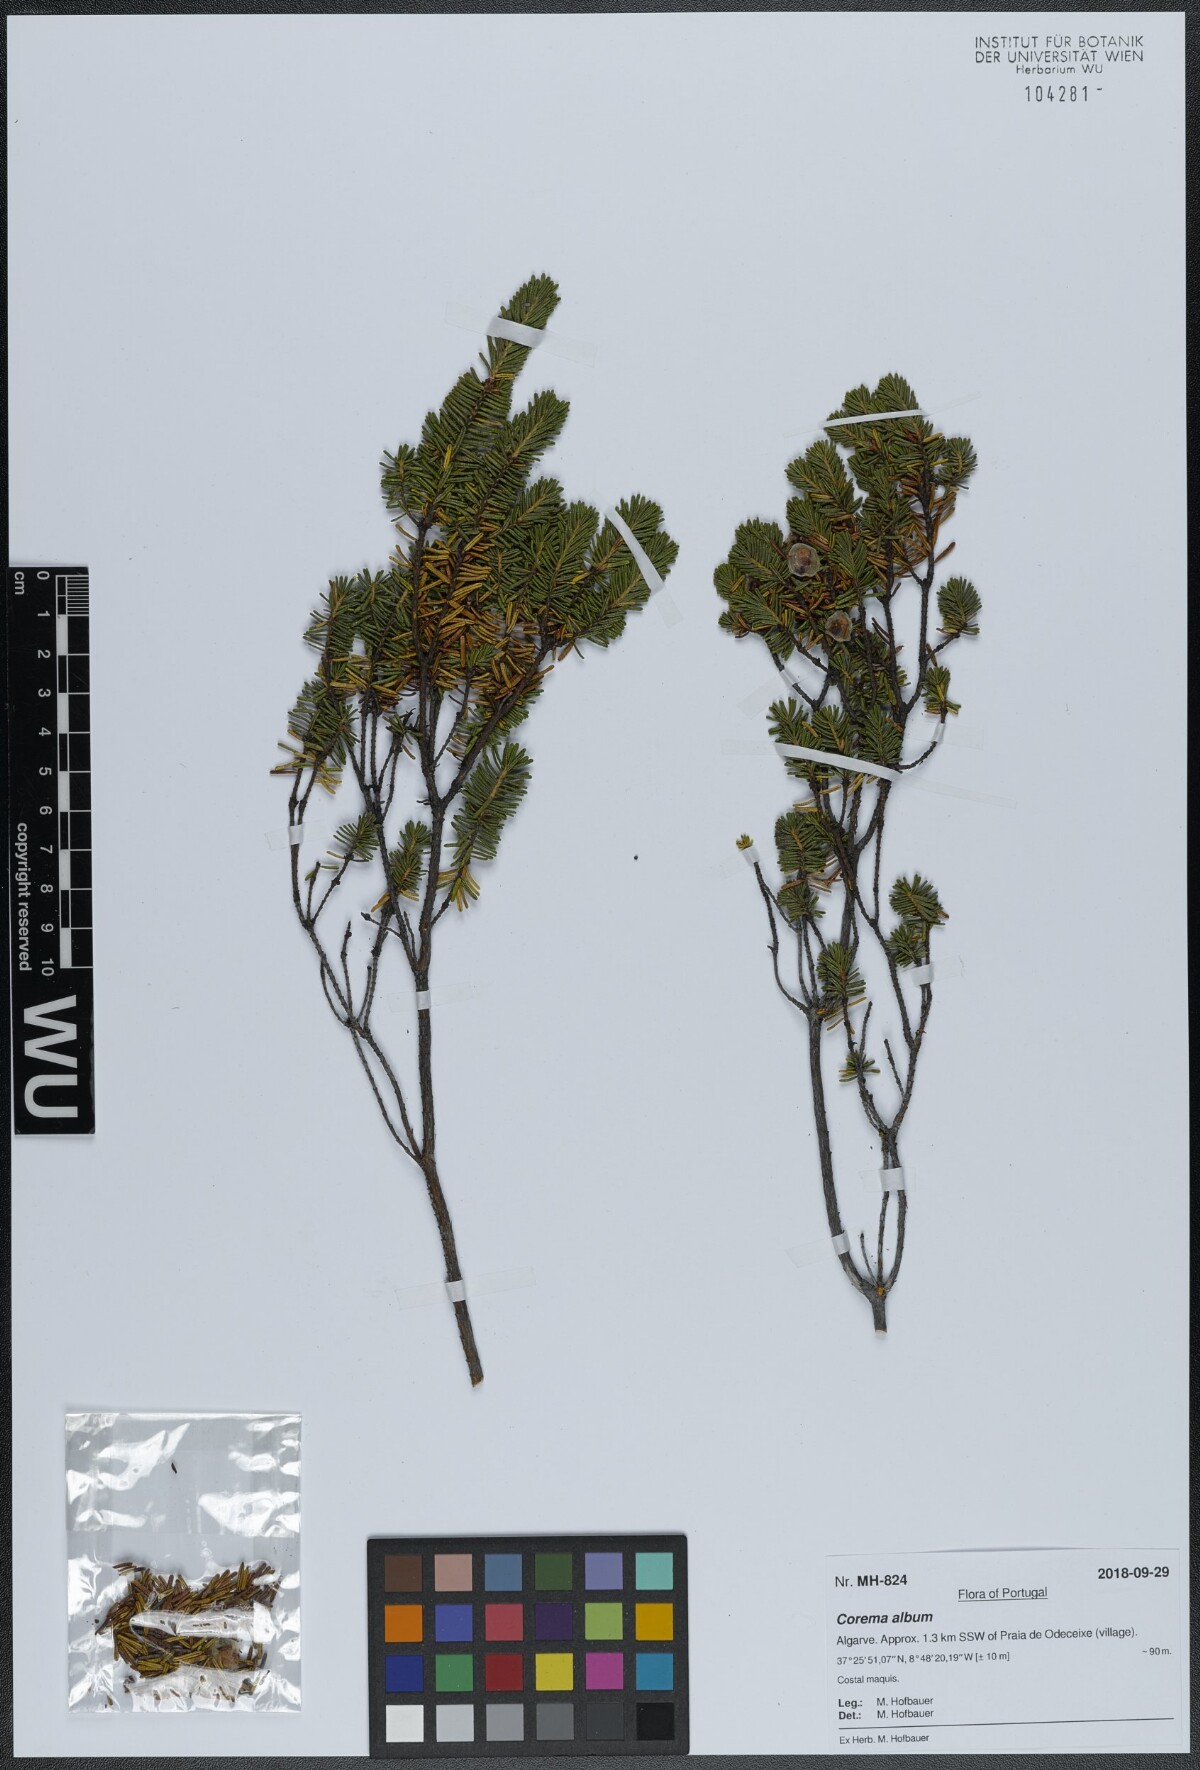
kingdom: Plantae
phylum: Tracheophyta
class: Magnoliopsida
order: Ericales
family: Ericaceae
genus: Corema
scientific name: Corema album
